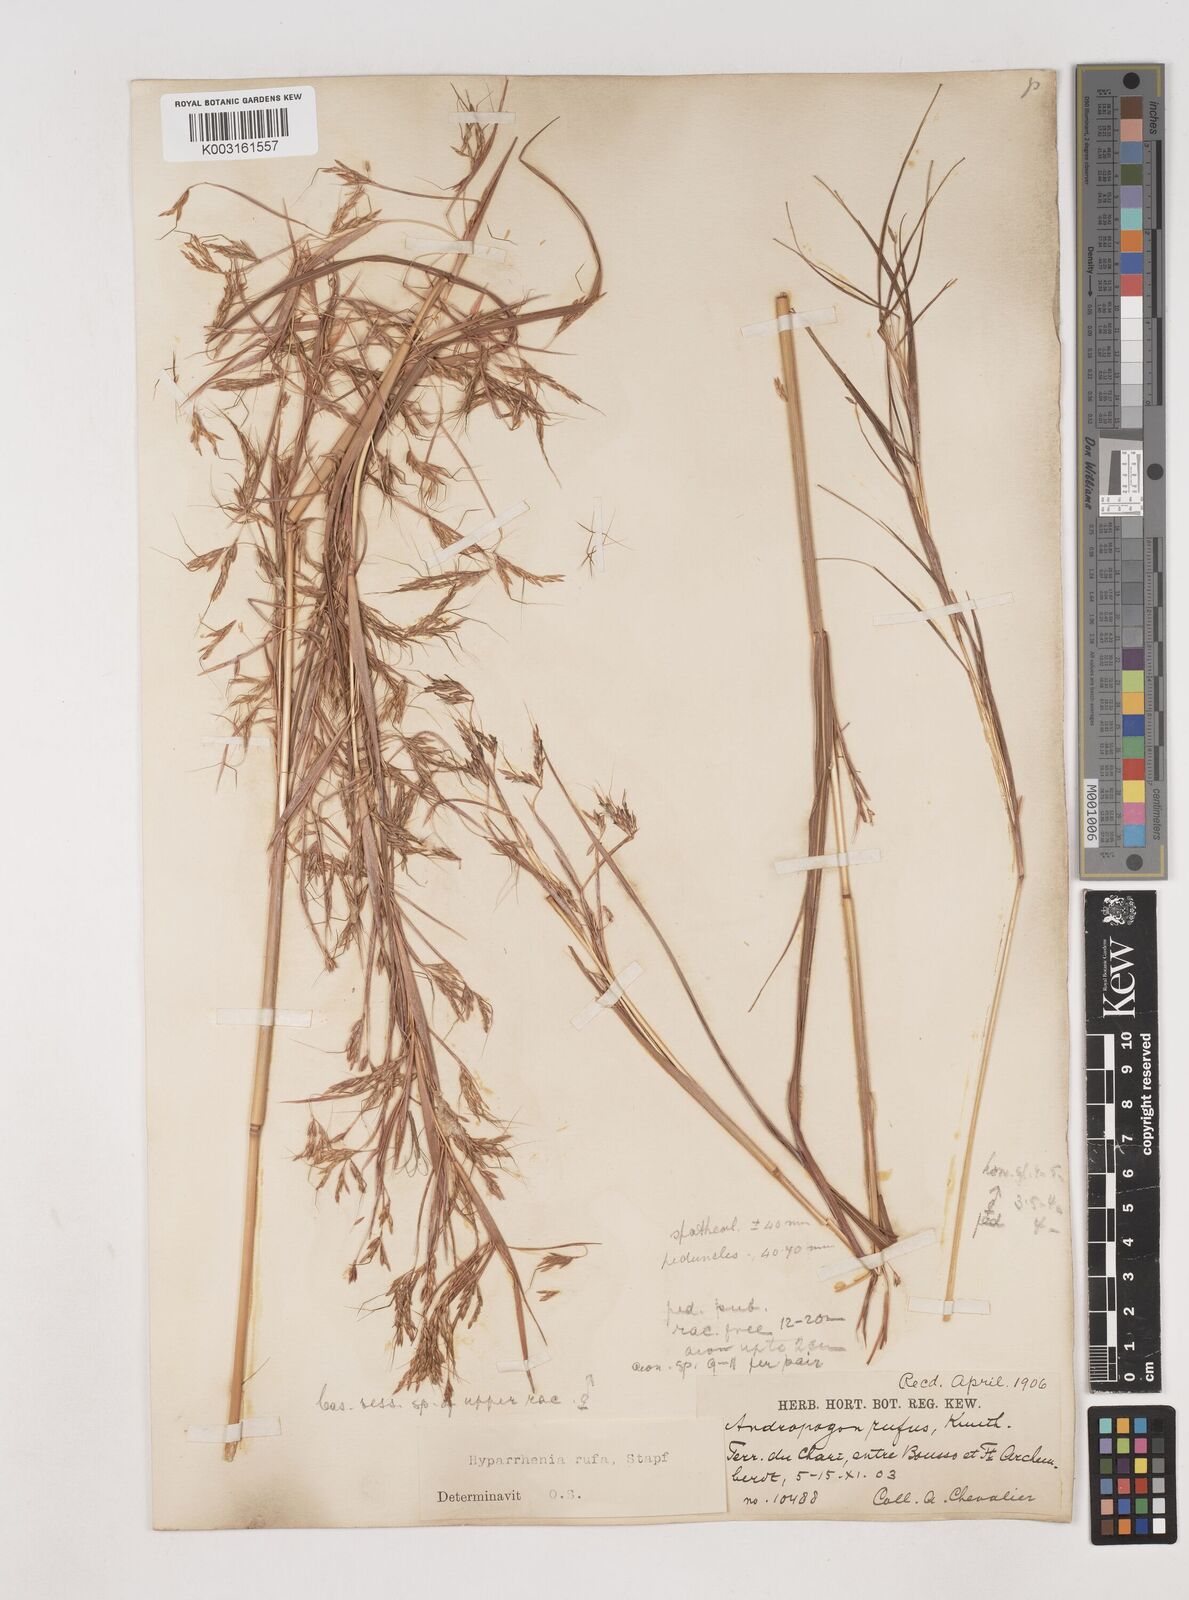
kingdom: Plantae
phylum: Tracheophyta
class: Liliopsida
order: Poales
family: Poaceae
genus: Hyparrhenia
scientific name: Hyparrhenia rufa
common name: Jaraguagrass
